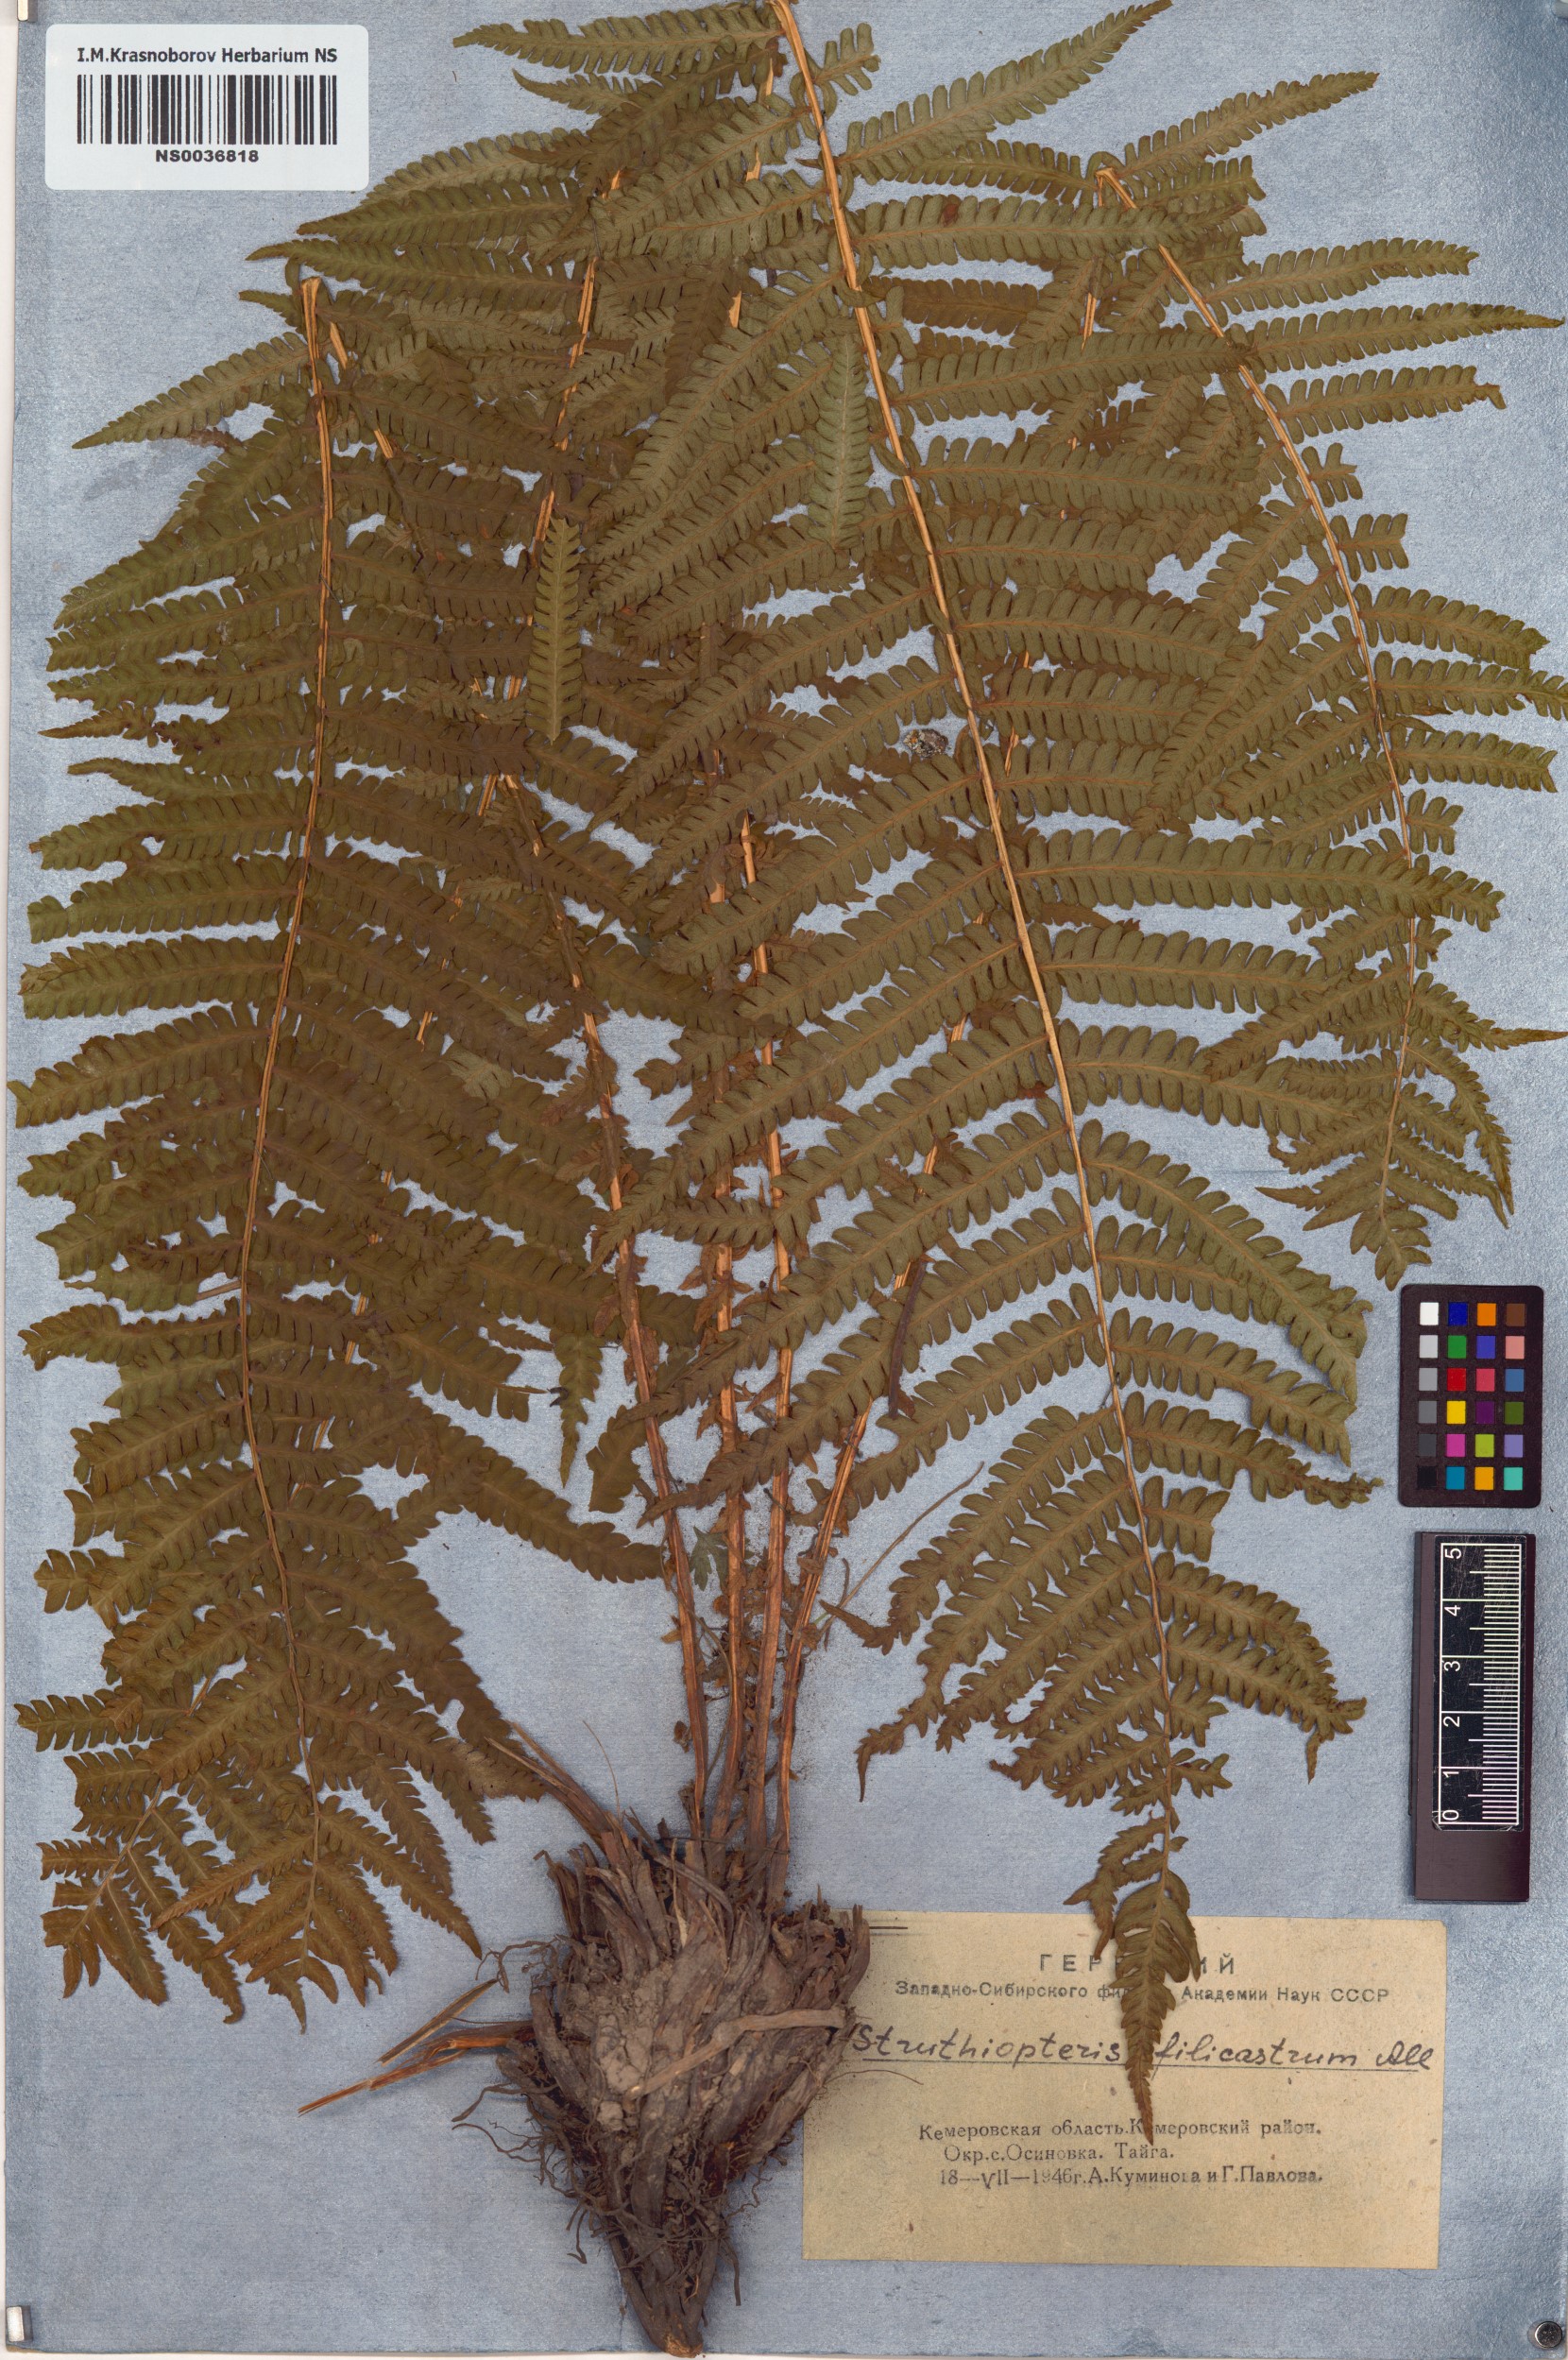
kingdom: Plantae
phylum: Tracheophyta
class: Polypodiopsida
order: Polypodiales
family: Onocleaceae
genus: Matteuccia
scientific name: Matteuccia struthiopteris
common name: Ostrich fern
